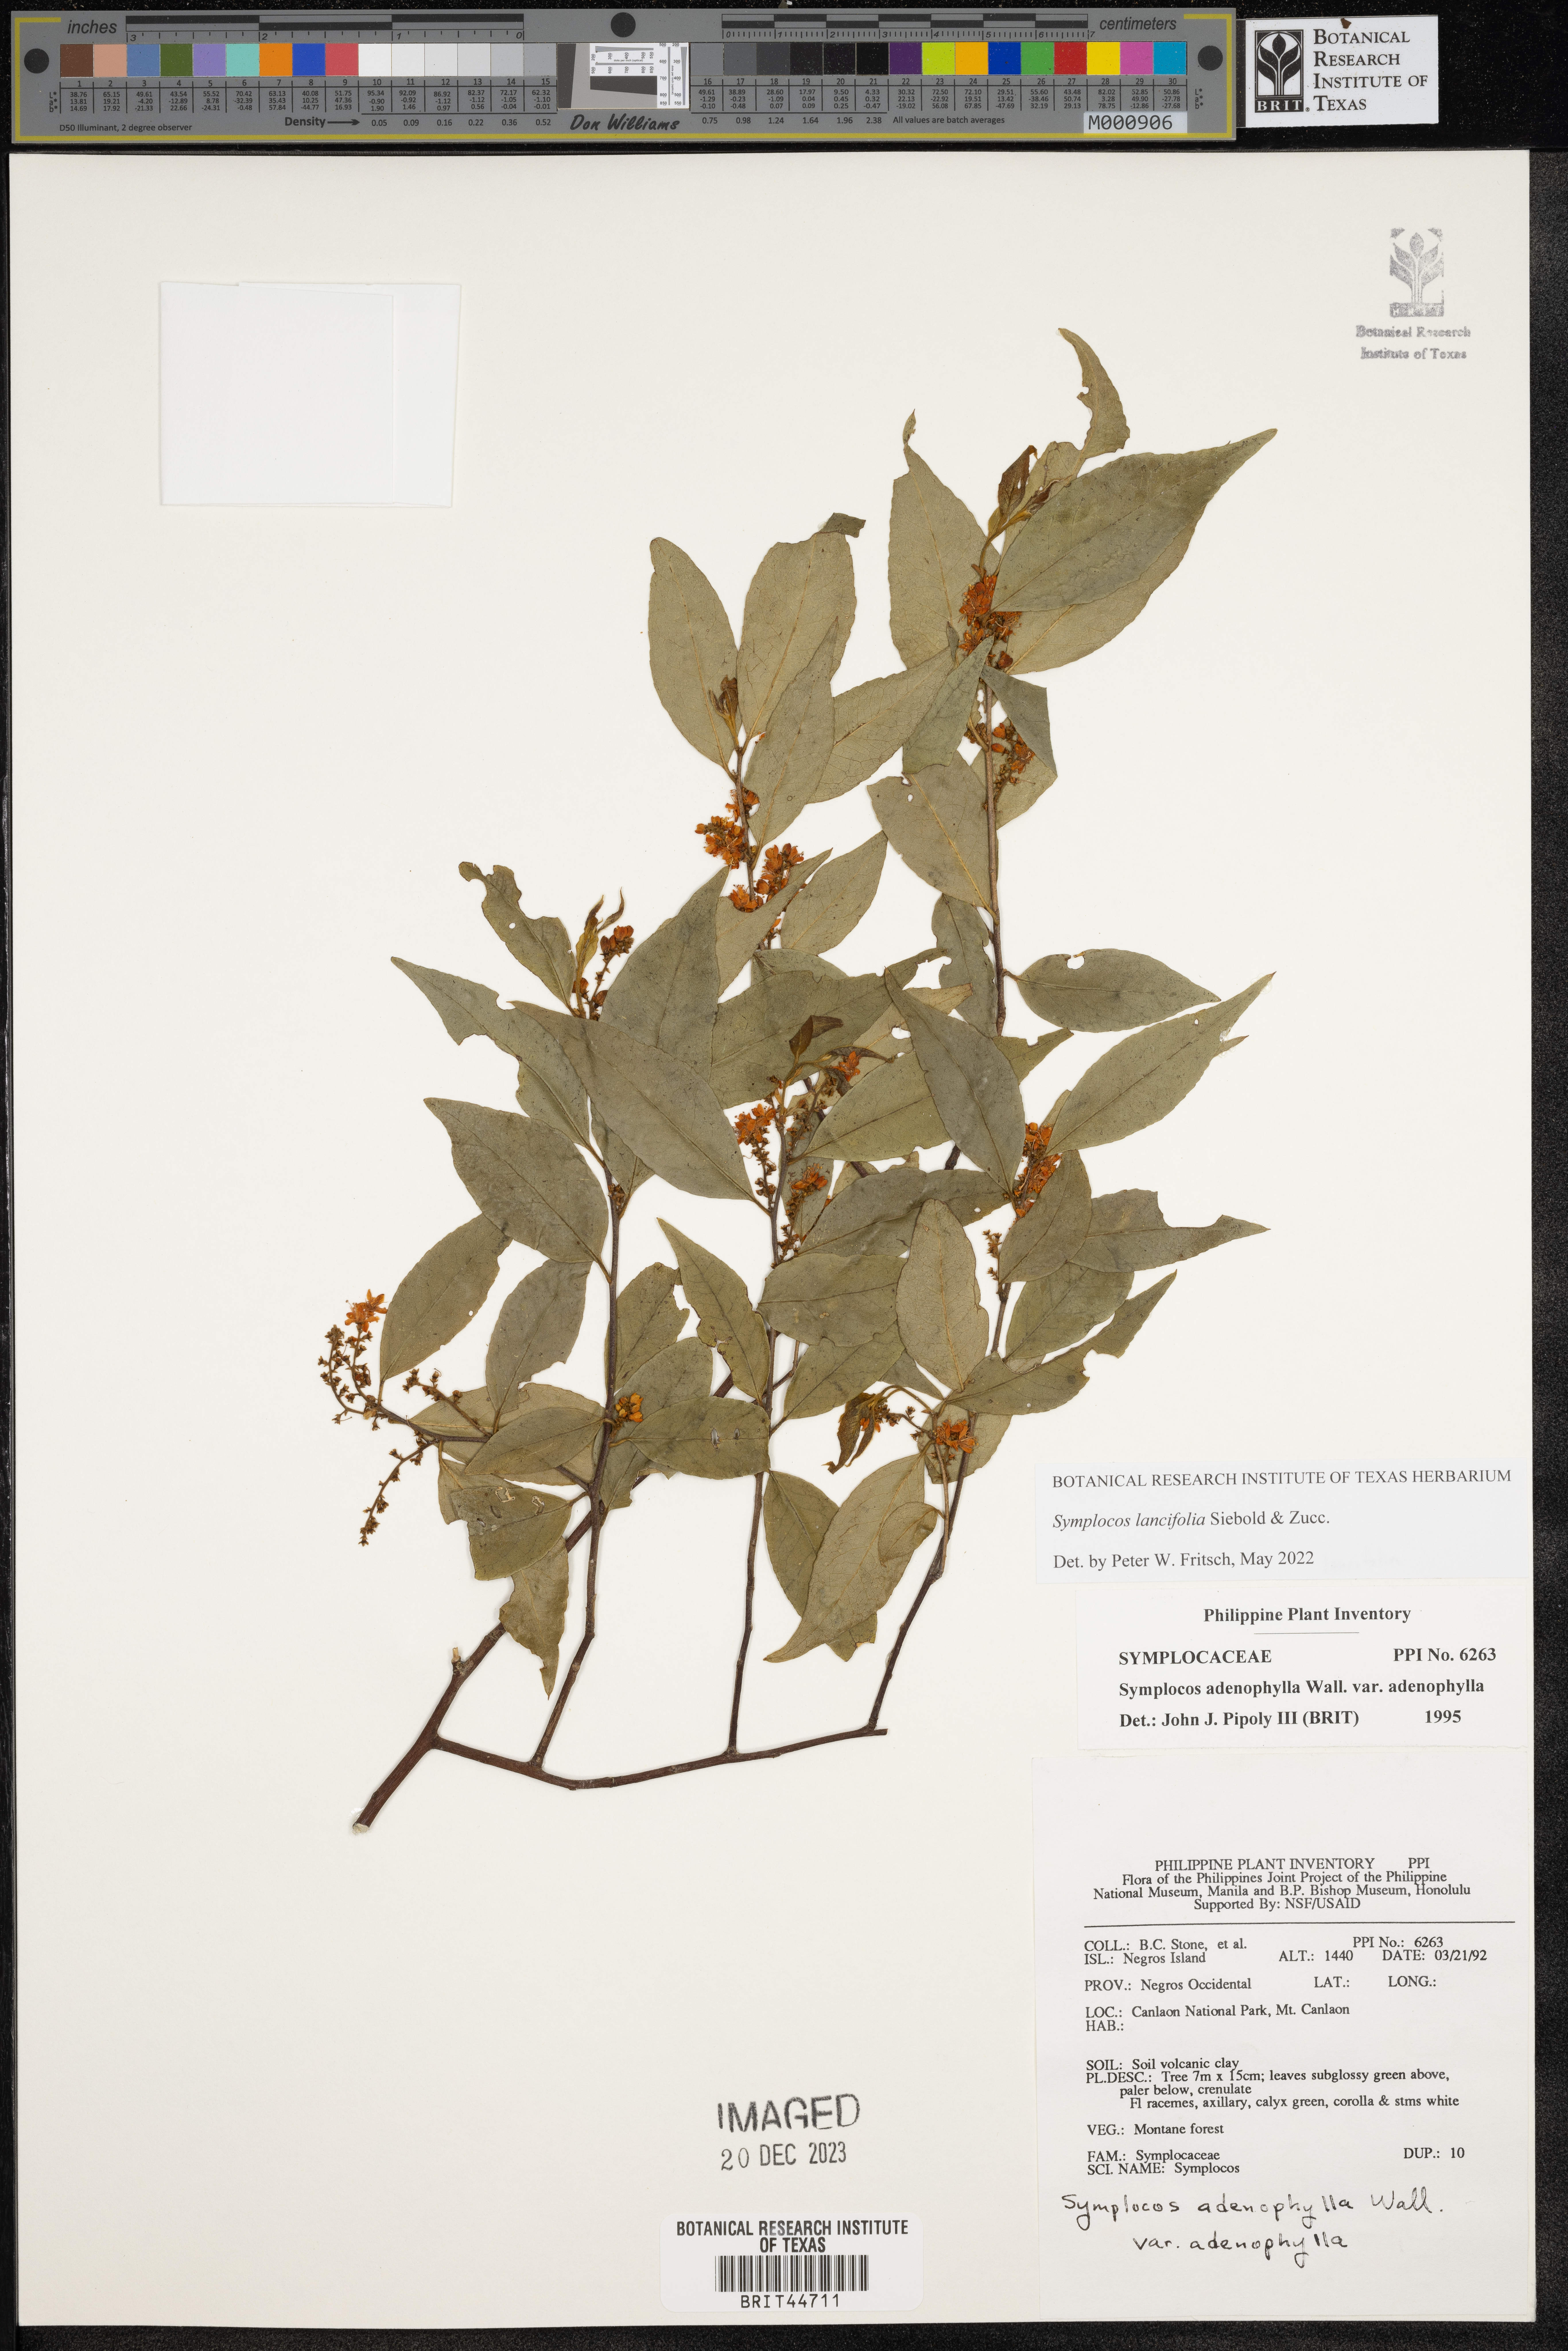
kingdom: Plantae
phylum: Tracheophyta
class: Magnoliopsida
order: Ericales
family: Symplocaceae
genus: Symplocos
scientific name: Symplocos adenophylla
